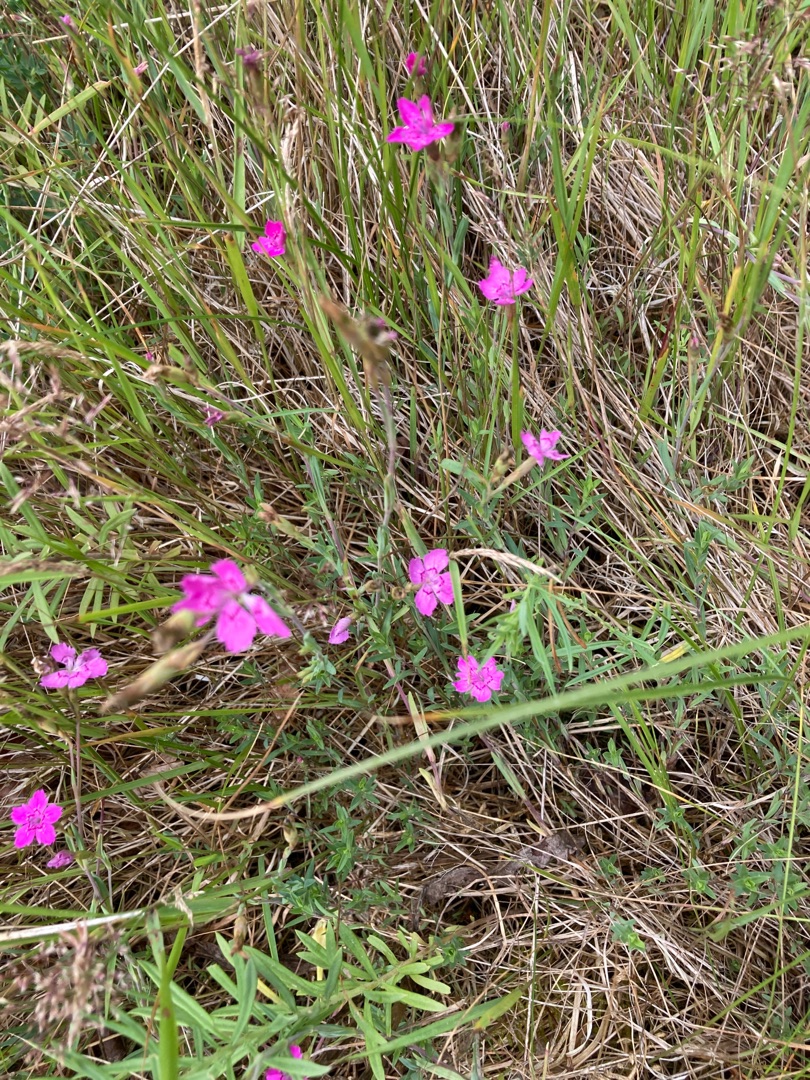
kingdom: Plantae
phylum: Tracheophyta
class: Magnoliopsida
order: Caryophyllales
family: Caryophyllaceae
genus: Dianthus
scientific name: Dianthus deltoides
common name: Bakke-nellike
